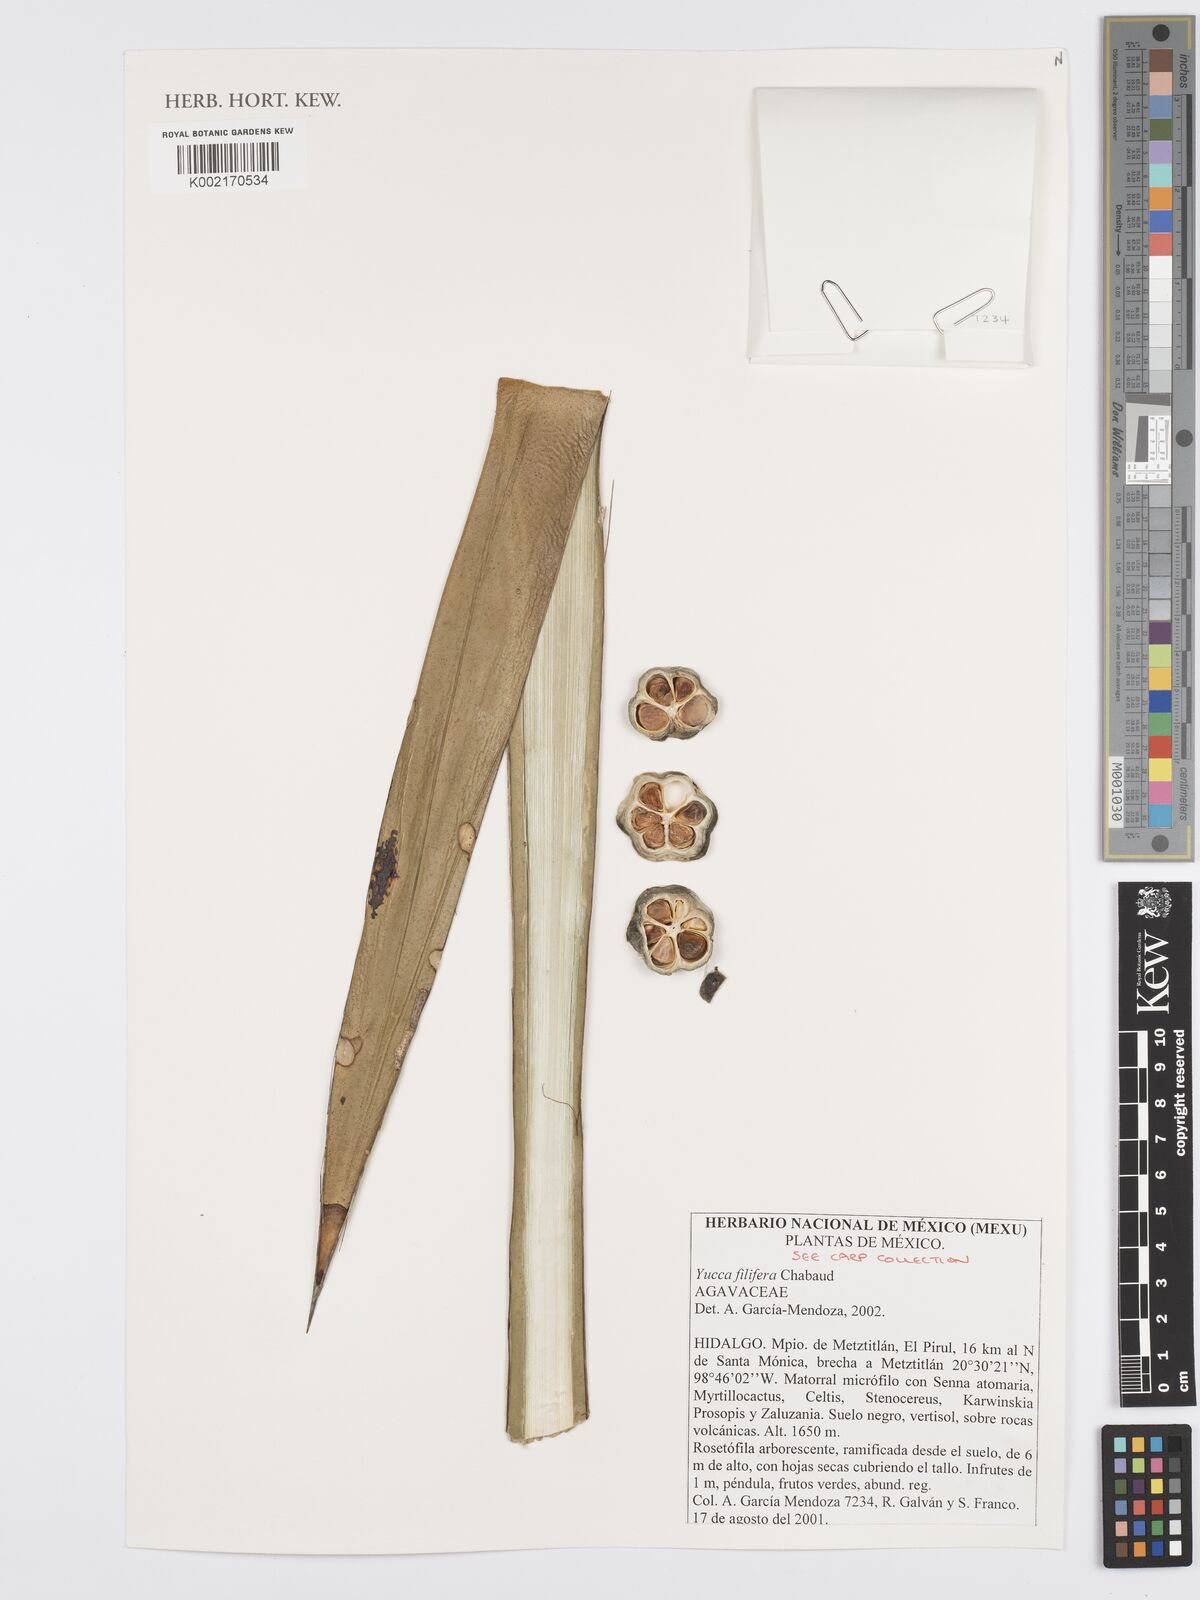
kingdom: Plantae
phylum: Tracheophyta
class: Liliopsida
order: Asparagales
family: Asparagaceae
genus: Yucca
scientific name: Yucca filifera
